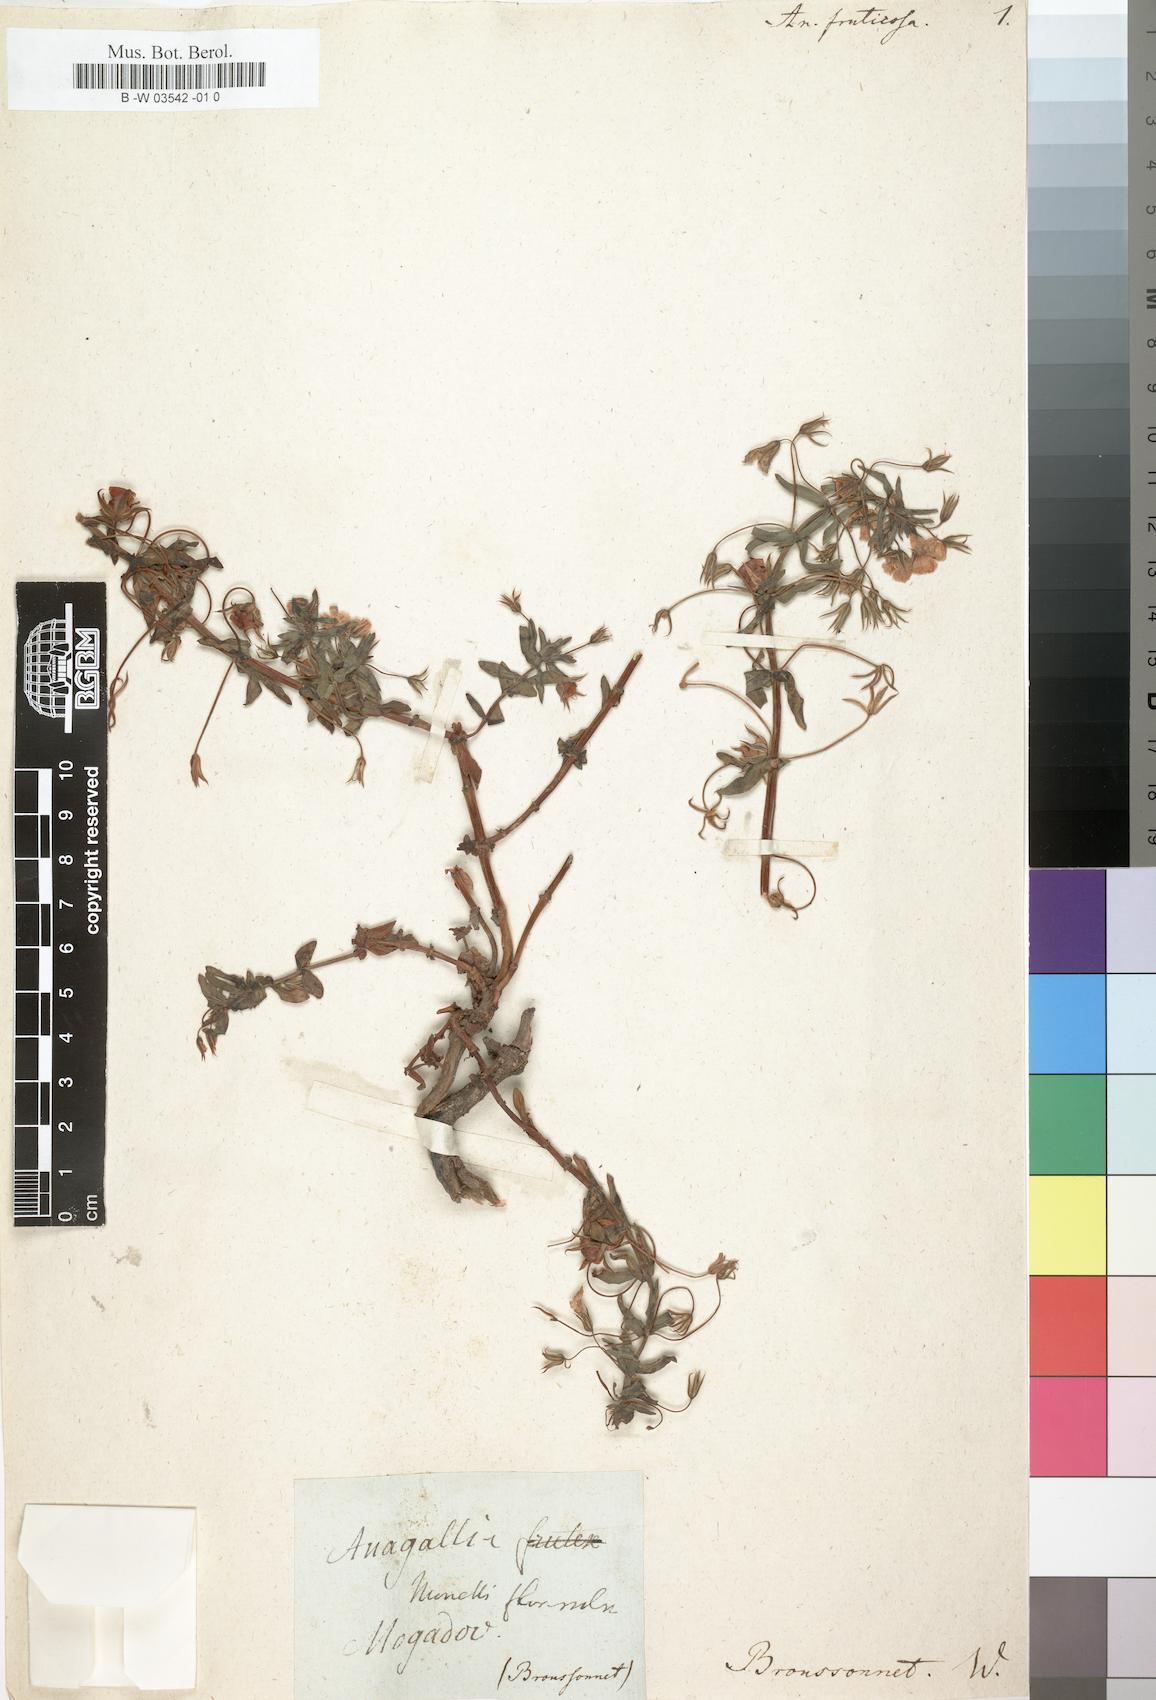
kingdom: Plantae
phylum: Tracheophyta
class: Magnoliopsida
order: Ericales
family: Primulaceae
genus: Lysimachia
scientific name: Lysimachia monelli
